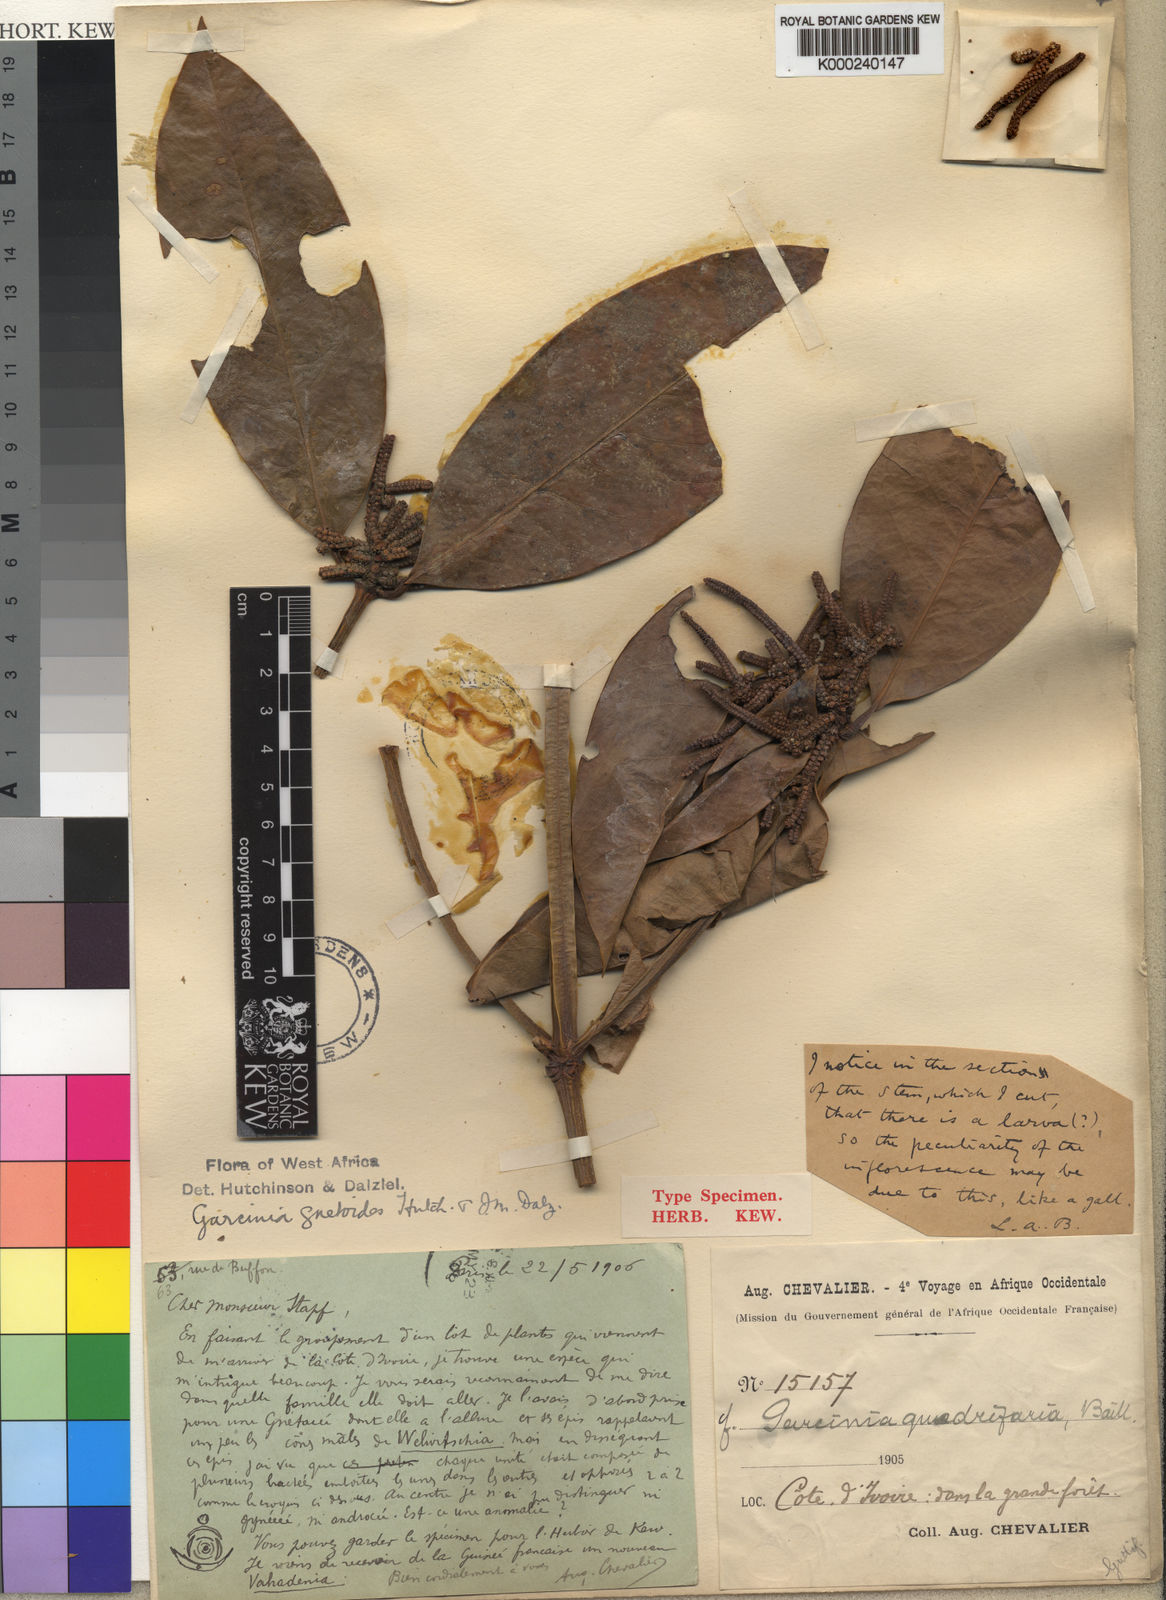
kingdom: Plantae
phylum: Tracheophyta
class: Magnoliopsida
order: Malpighiales
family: Clusiaceae
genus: Garcinia
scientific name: Garcinia quadrifaria
